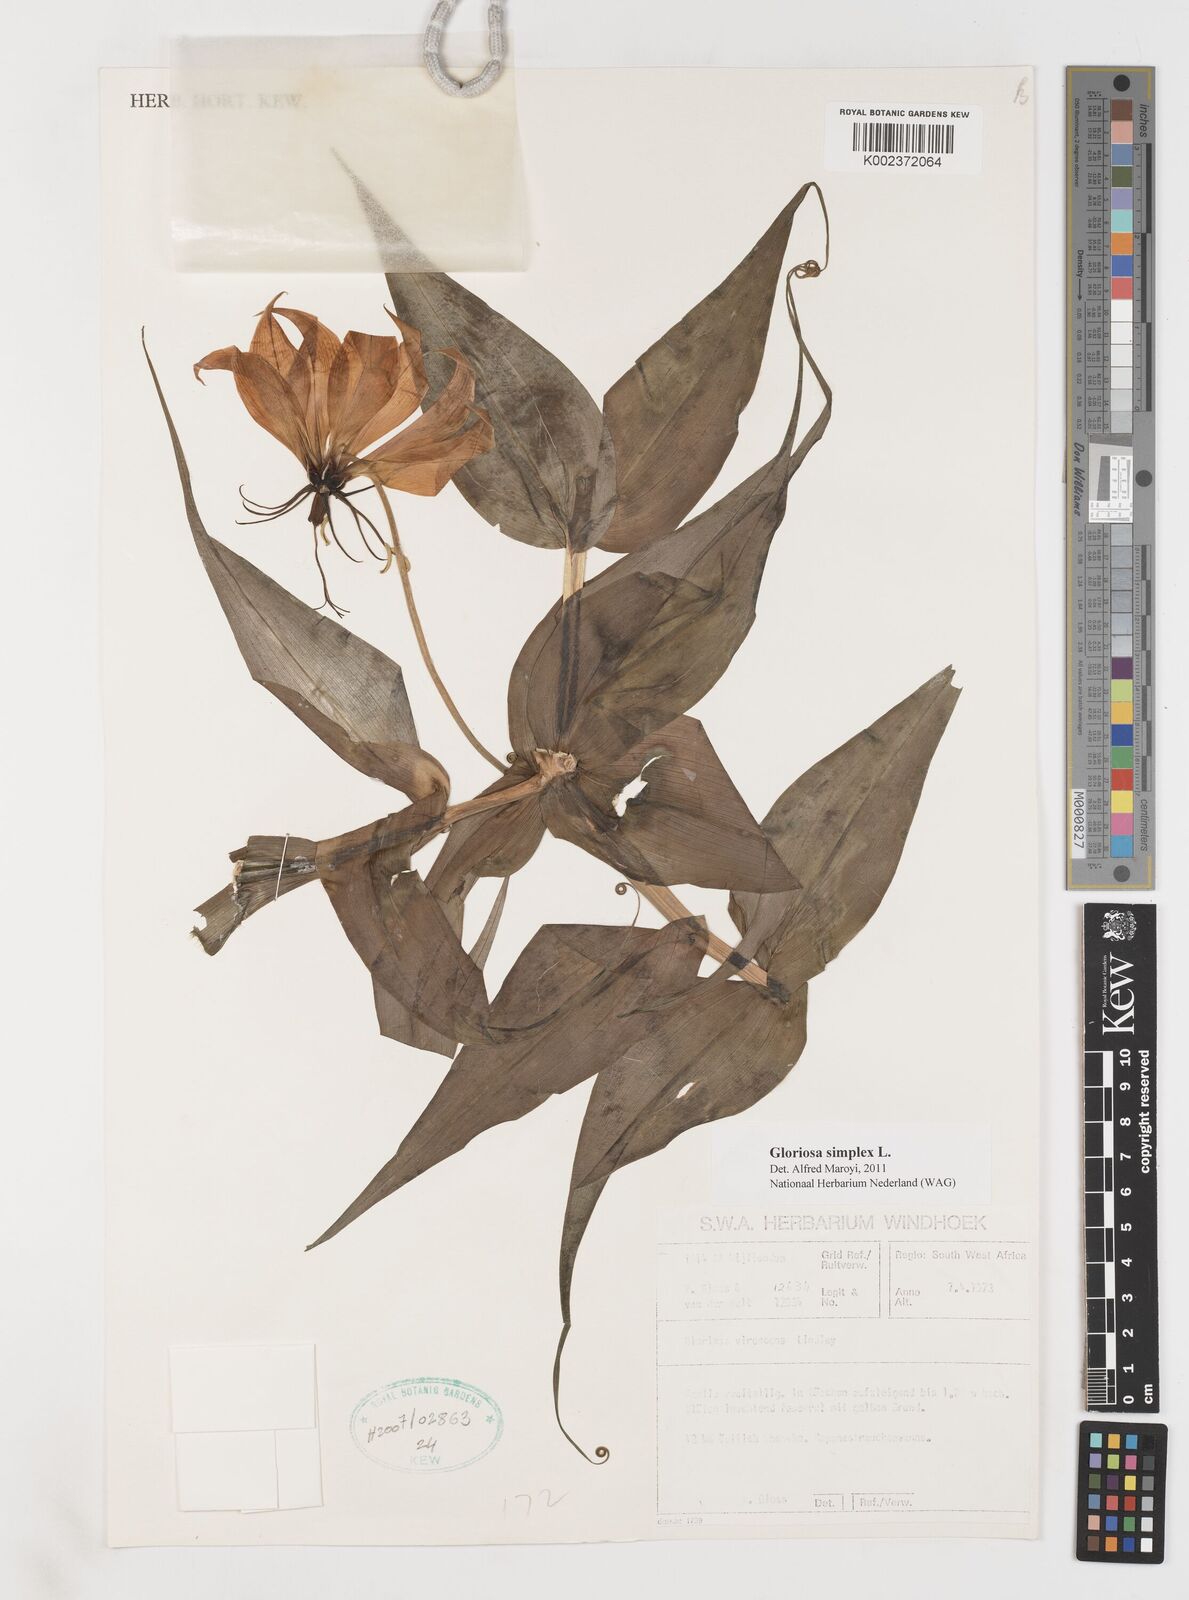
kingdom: Plantae
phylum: Tracheophyta
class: Liliopsida
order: Liliales
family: Colchicaceae
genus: Gloriosa
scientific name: Gloriosa simplex
